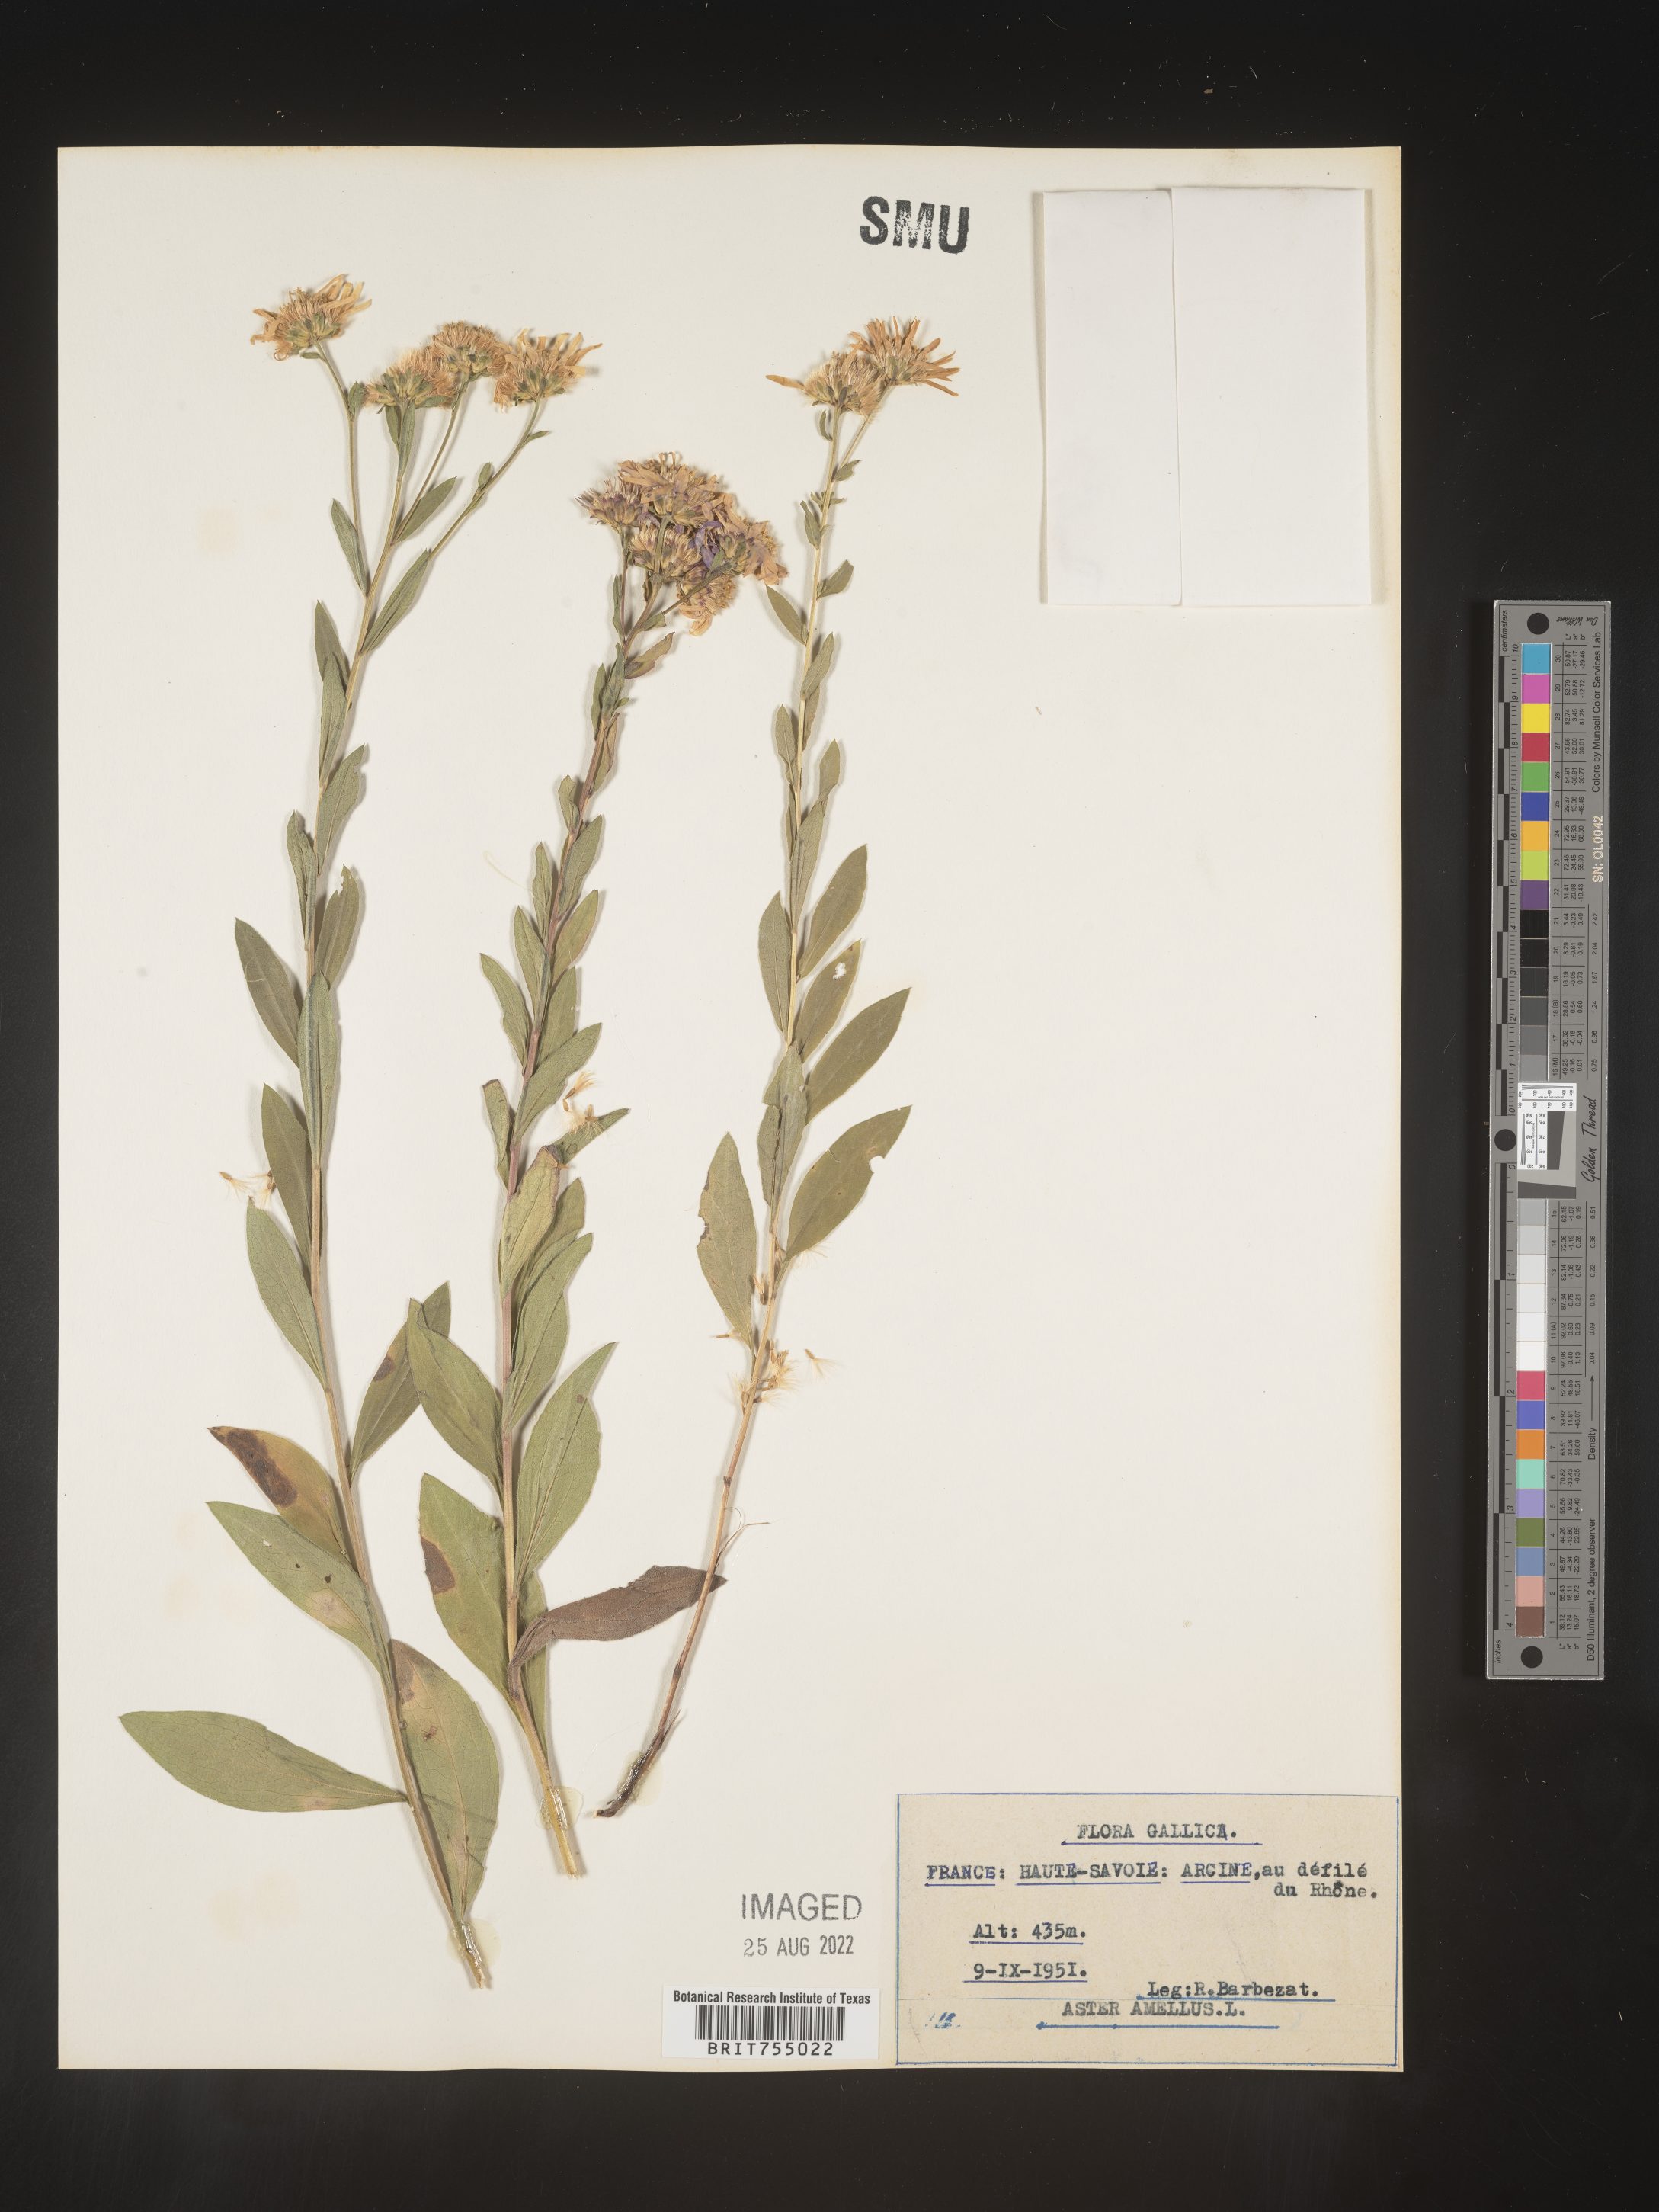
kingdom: Plantae
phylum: Tracheophyta
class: Magnoliopsida
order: Asterales
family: Asteraceae
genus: Symphyotrichum
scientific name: Symphyotrichum
